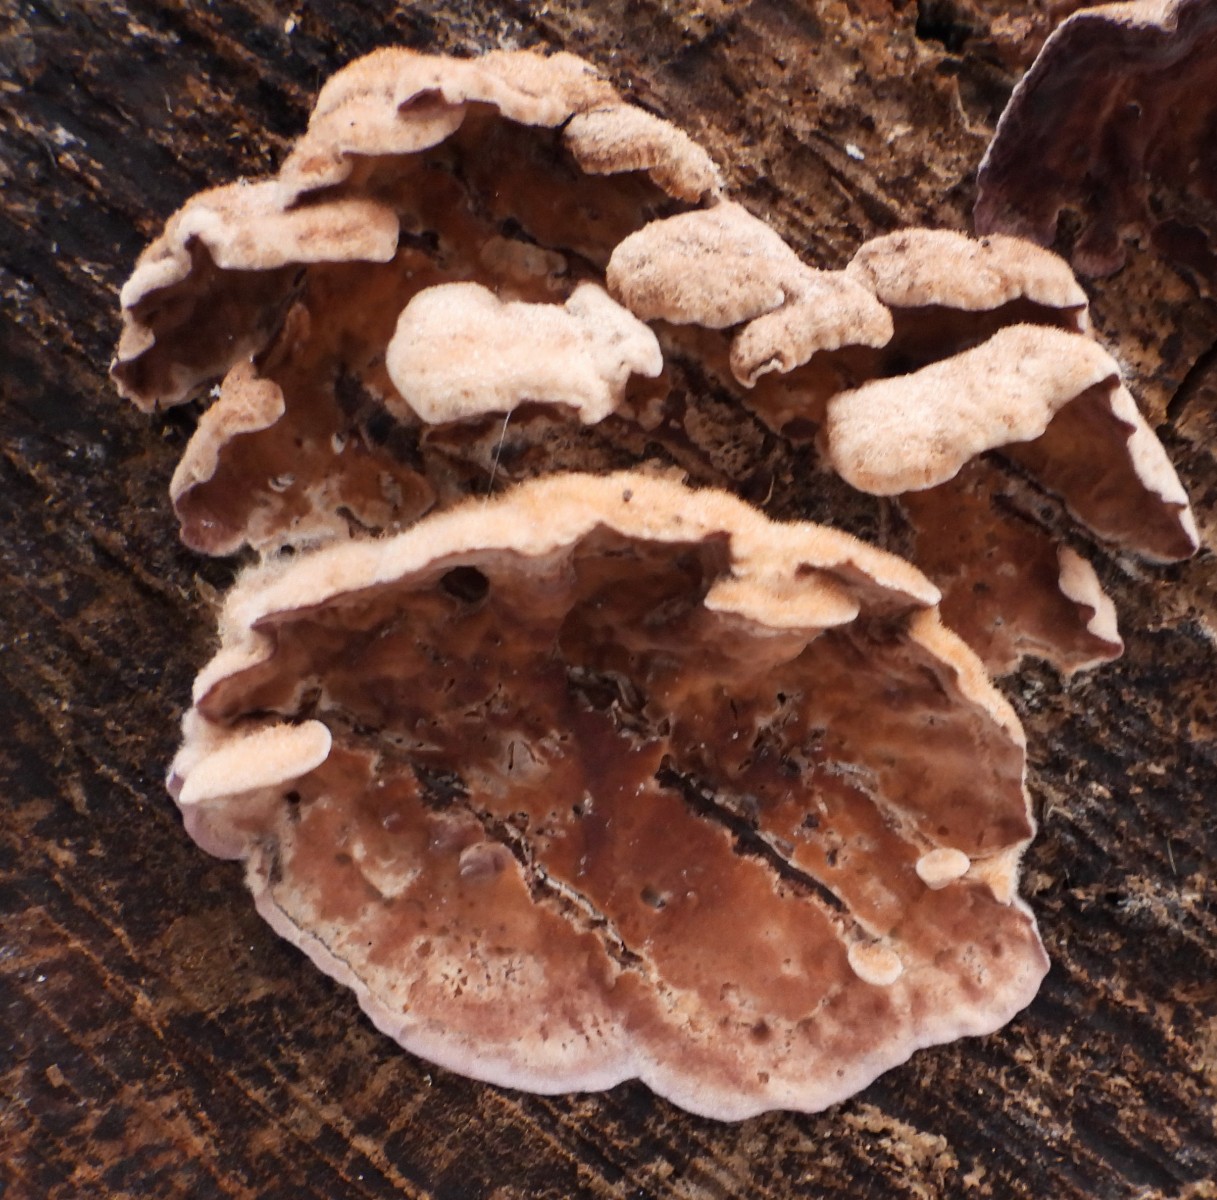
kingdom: Fungi
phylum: Basidiomycota
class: Agaricomycetes
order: Agaricales
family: Cyphellaceae
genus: Chondrostereum
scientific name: Chondrostereum purpureum
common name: purpurlædersvamp
